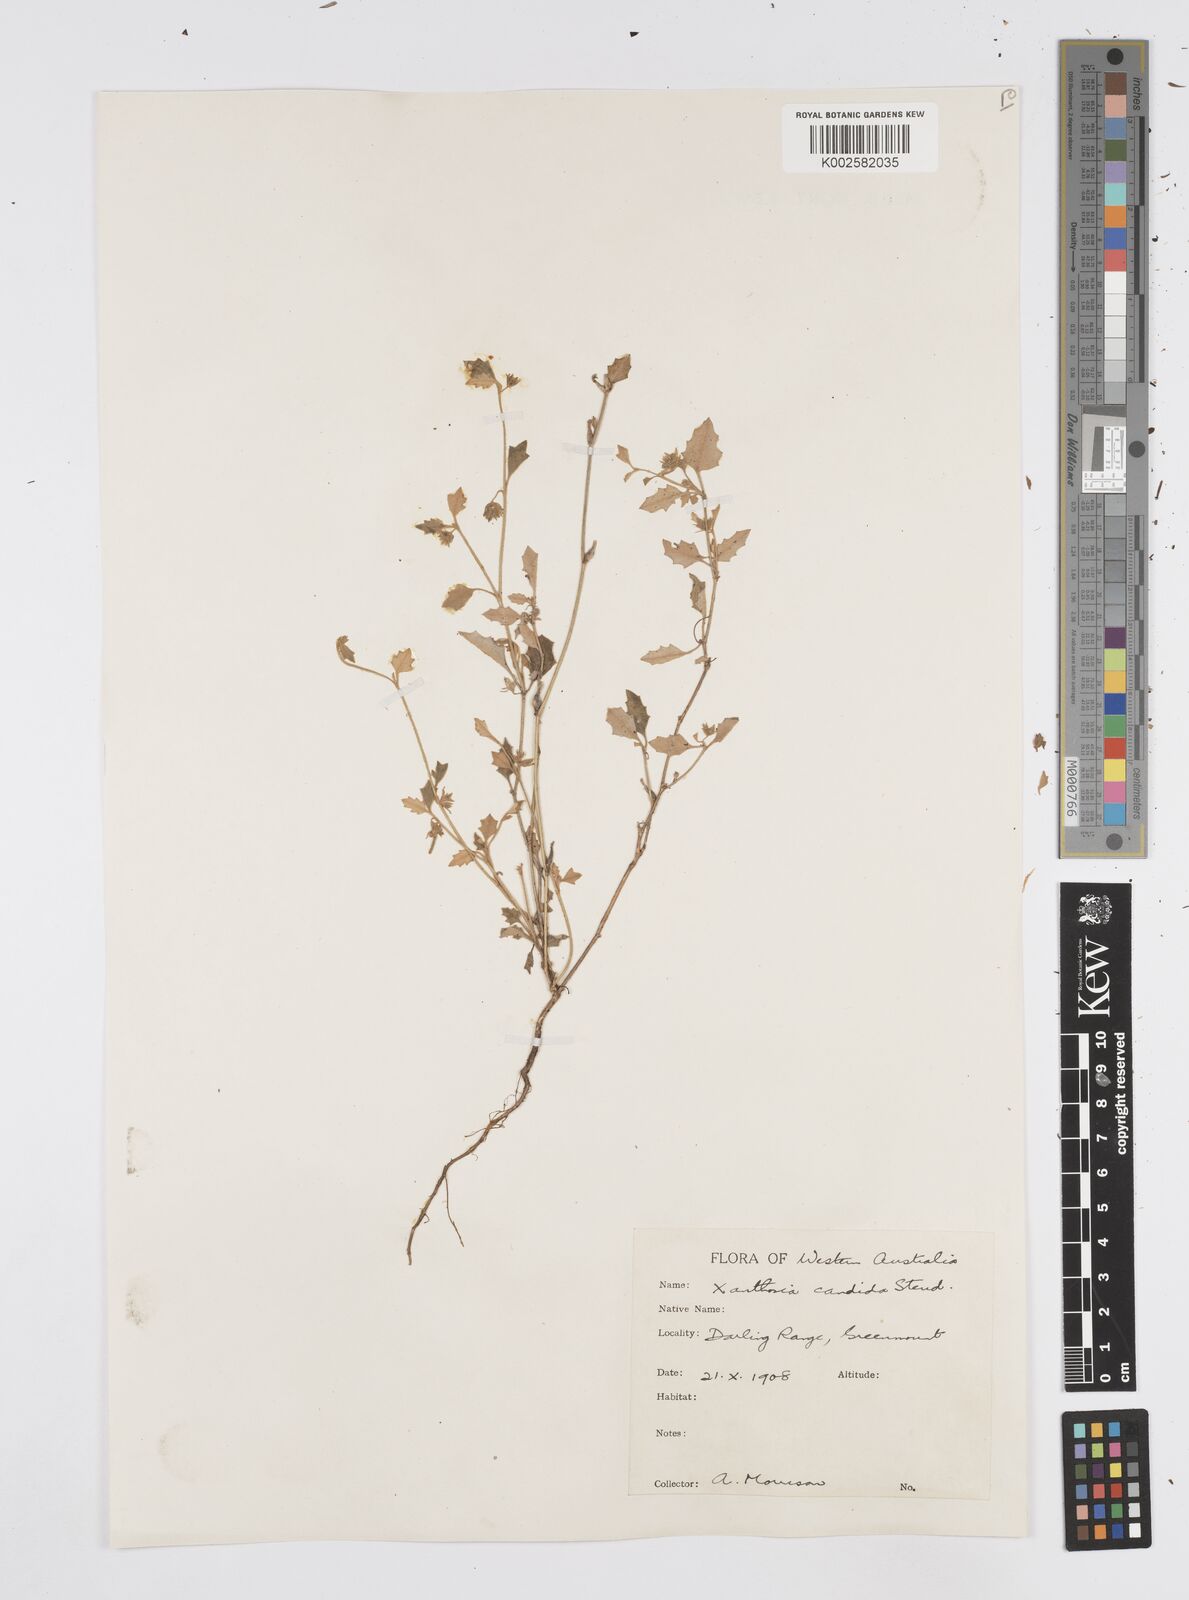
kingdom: Plantae
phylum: Tracheophyta
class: Magnoliopsida
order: Apiales
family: Apiaceae
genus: Xanthosia
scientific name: Xanthosia candida
